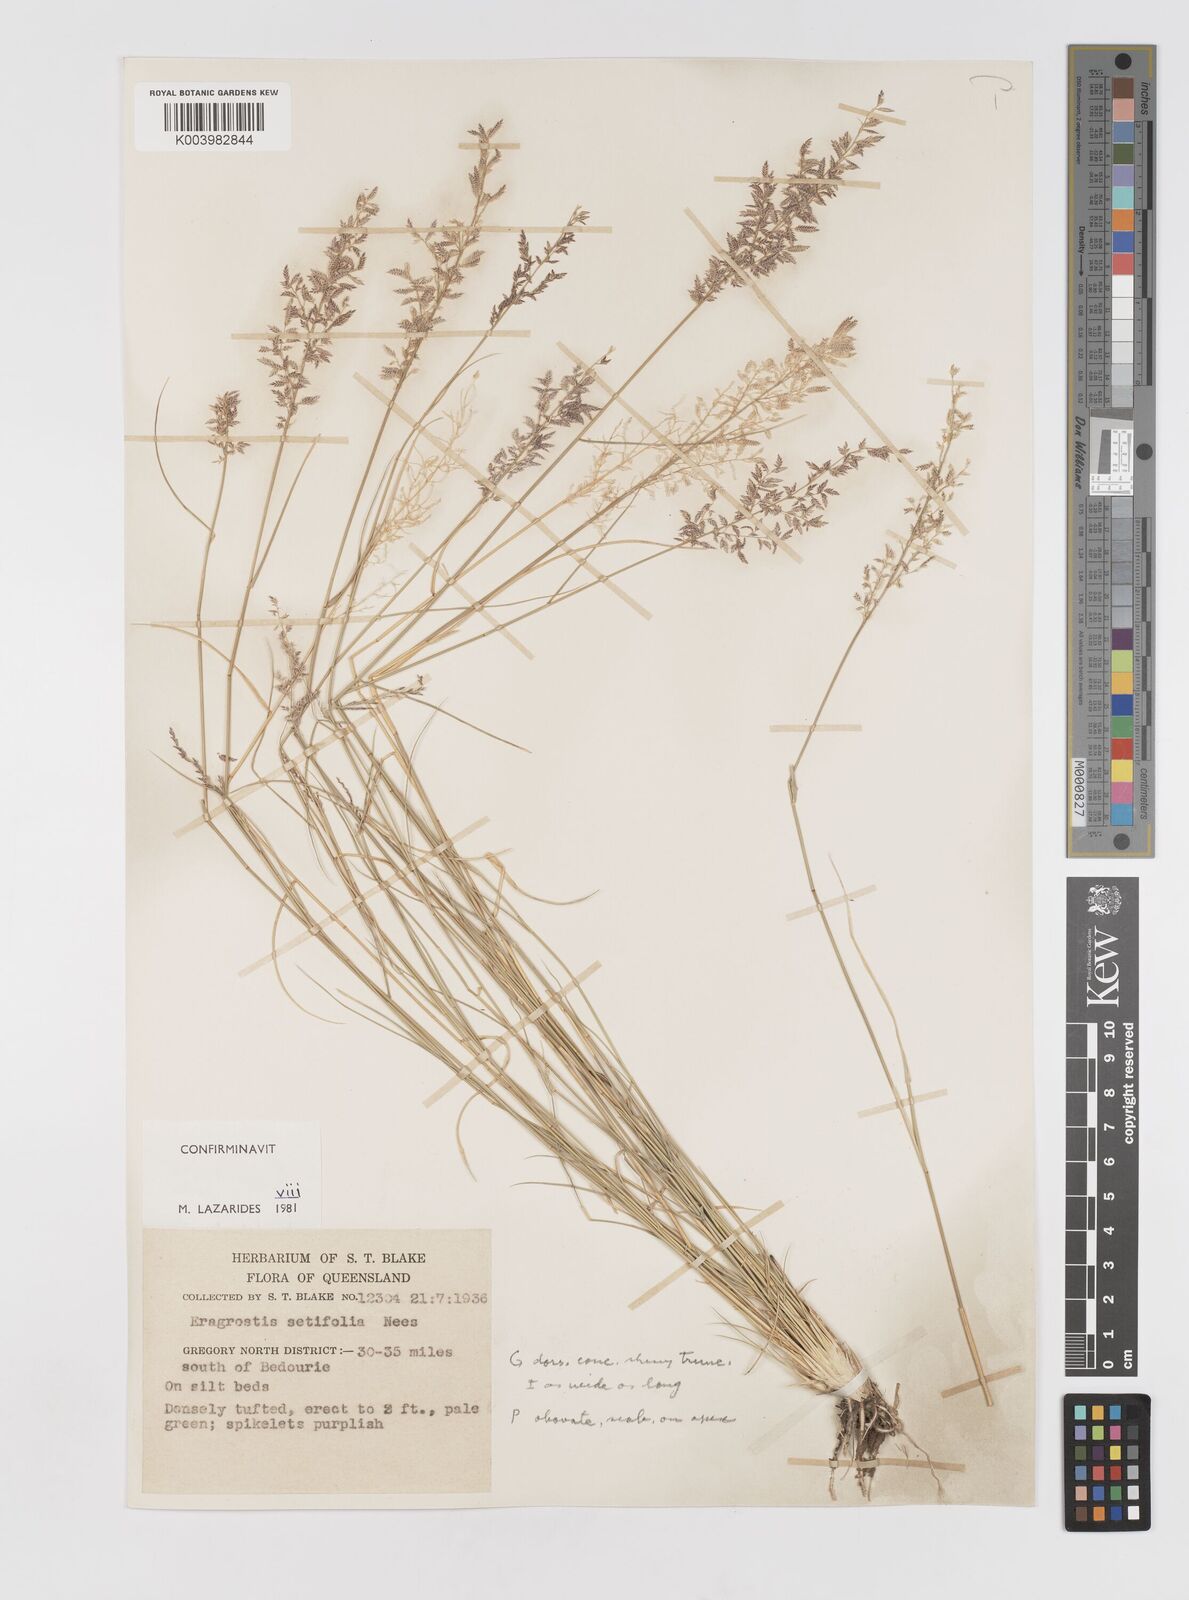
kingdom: Plantae
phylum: Tracheophyta
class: Liliopsida
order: Poales
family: Poaceae
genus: Eragrostis
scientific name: Eragrostis setifolia
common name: Bristleleaf lovegrass
